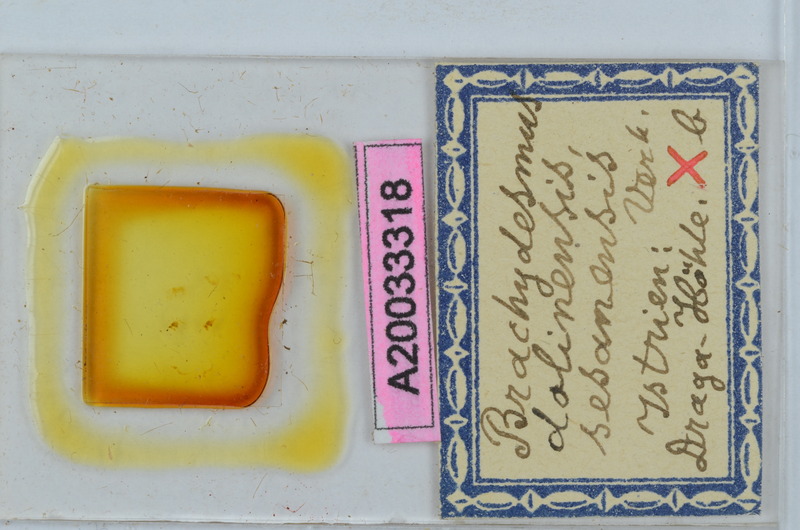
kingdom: Animalia
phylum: Arthropoda
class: Diplopoda
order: Polydesmida
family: Polydesmidae
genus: Brachydesmus
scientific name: Brachydesmus dolinensis
